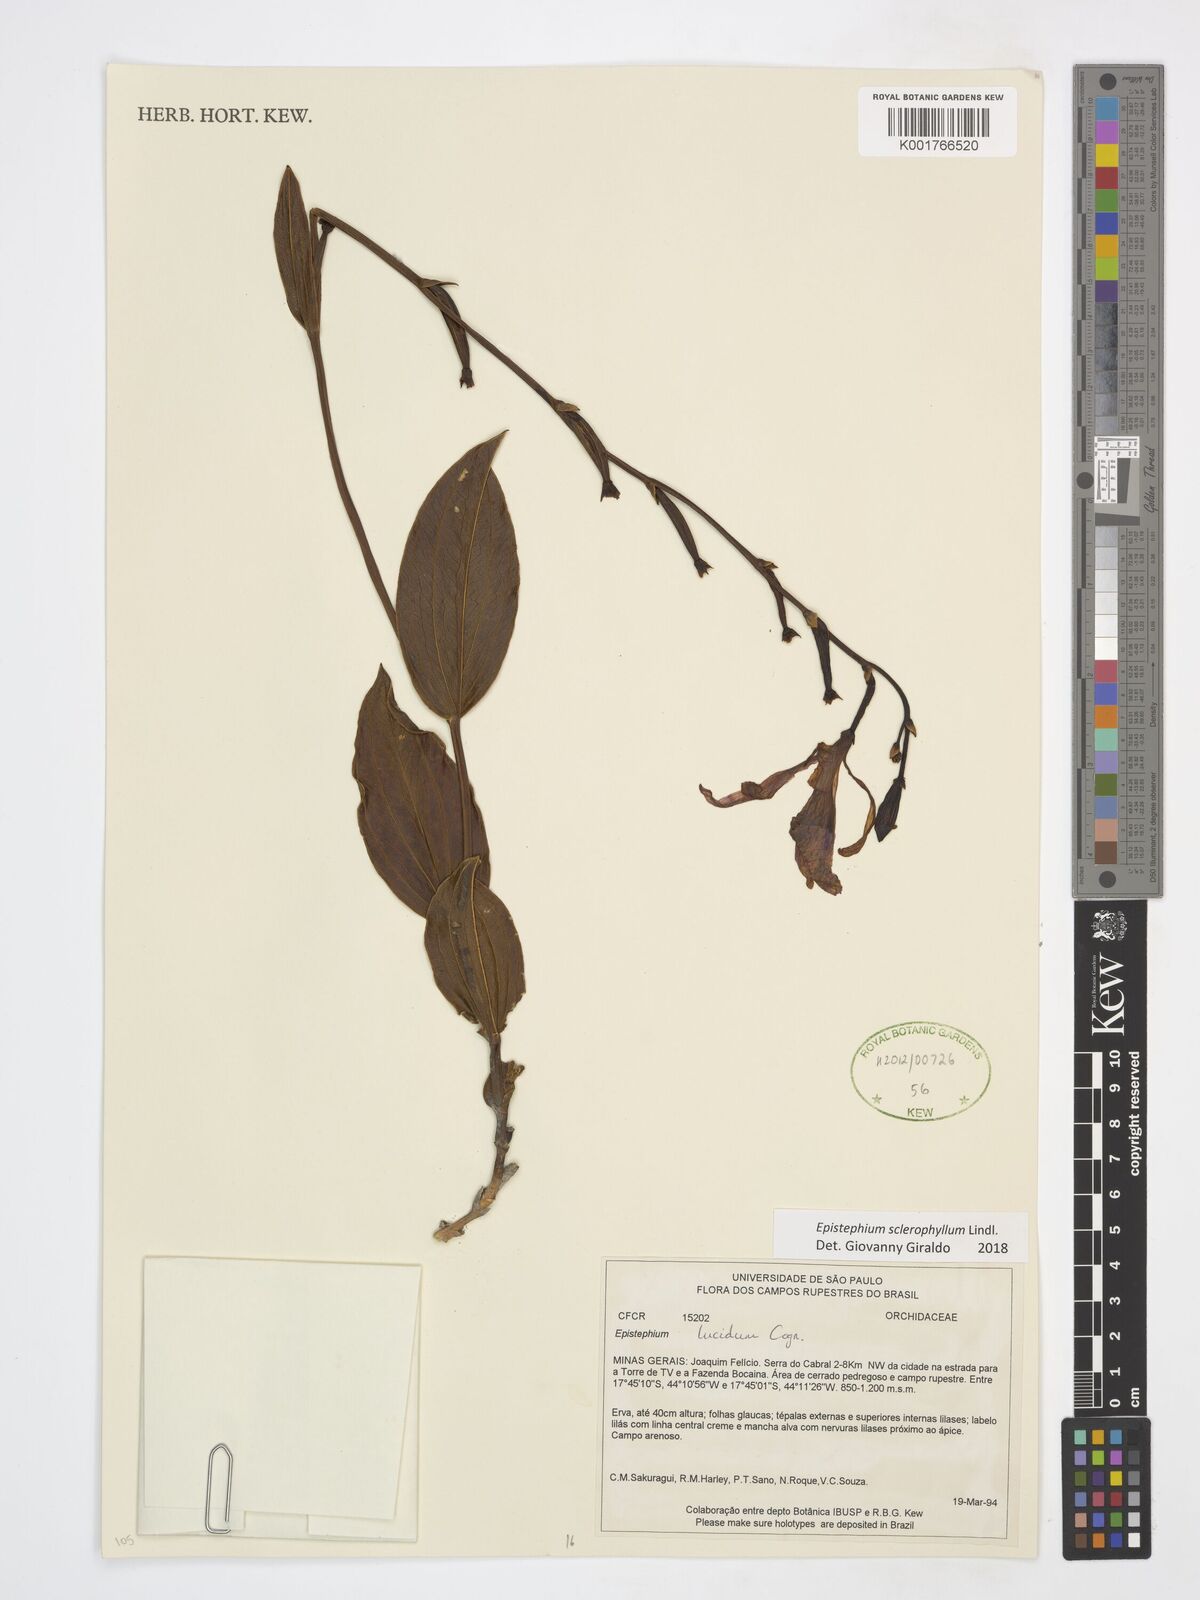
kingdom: Plantae
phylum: Tracheophyta
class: Liliopsida
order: Asparagales
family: Orchidaceae
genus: Epistephium
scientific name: Epistephium sclerophyllum
